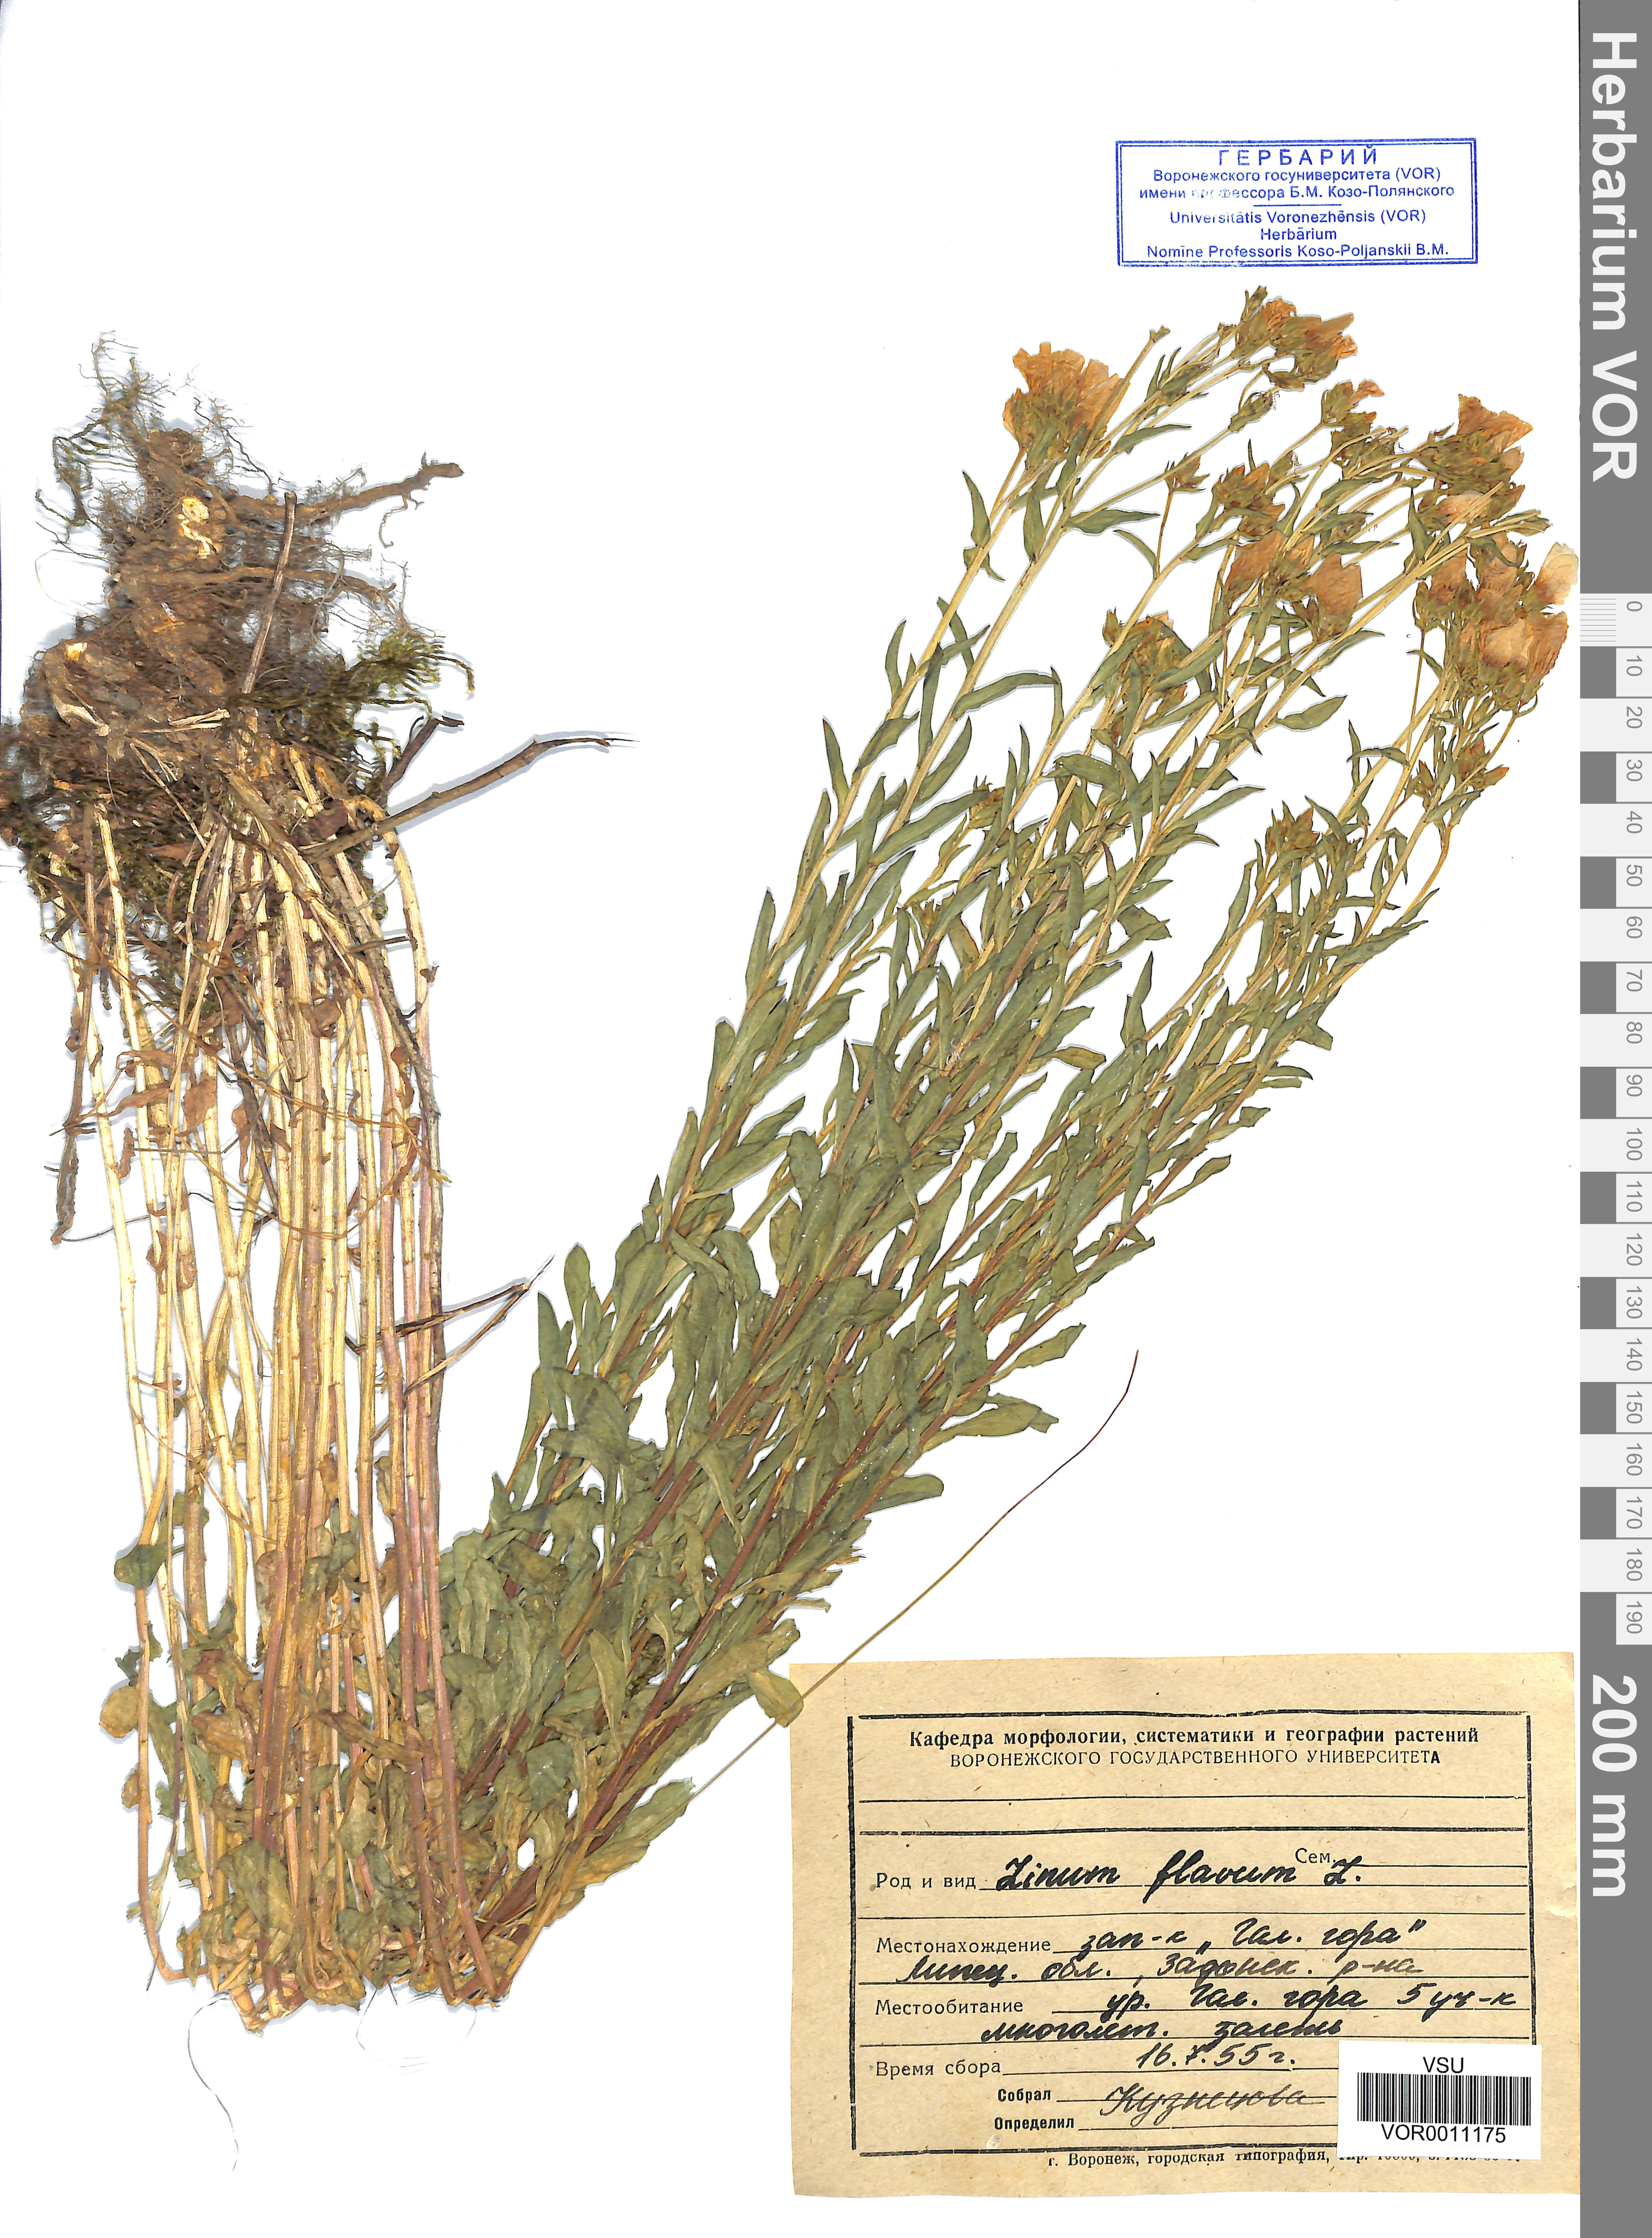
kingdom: Plantae
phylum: Tracheophyta
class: Magnoliopsida
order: Malpighiales
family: Linaceae
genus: Linum
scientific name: Linum flavum
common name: Yellow flax
